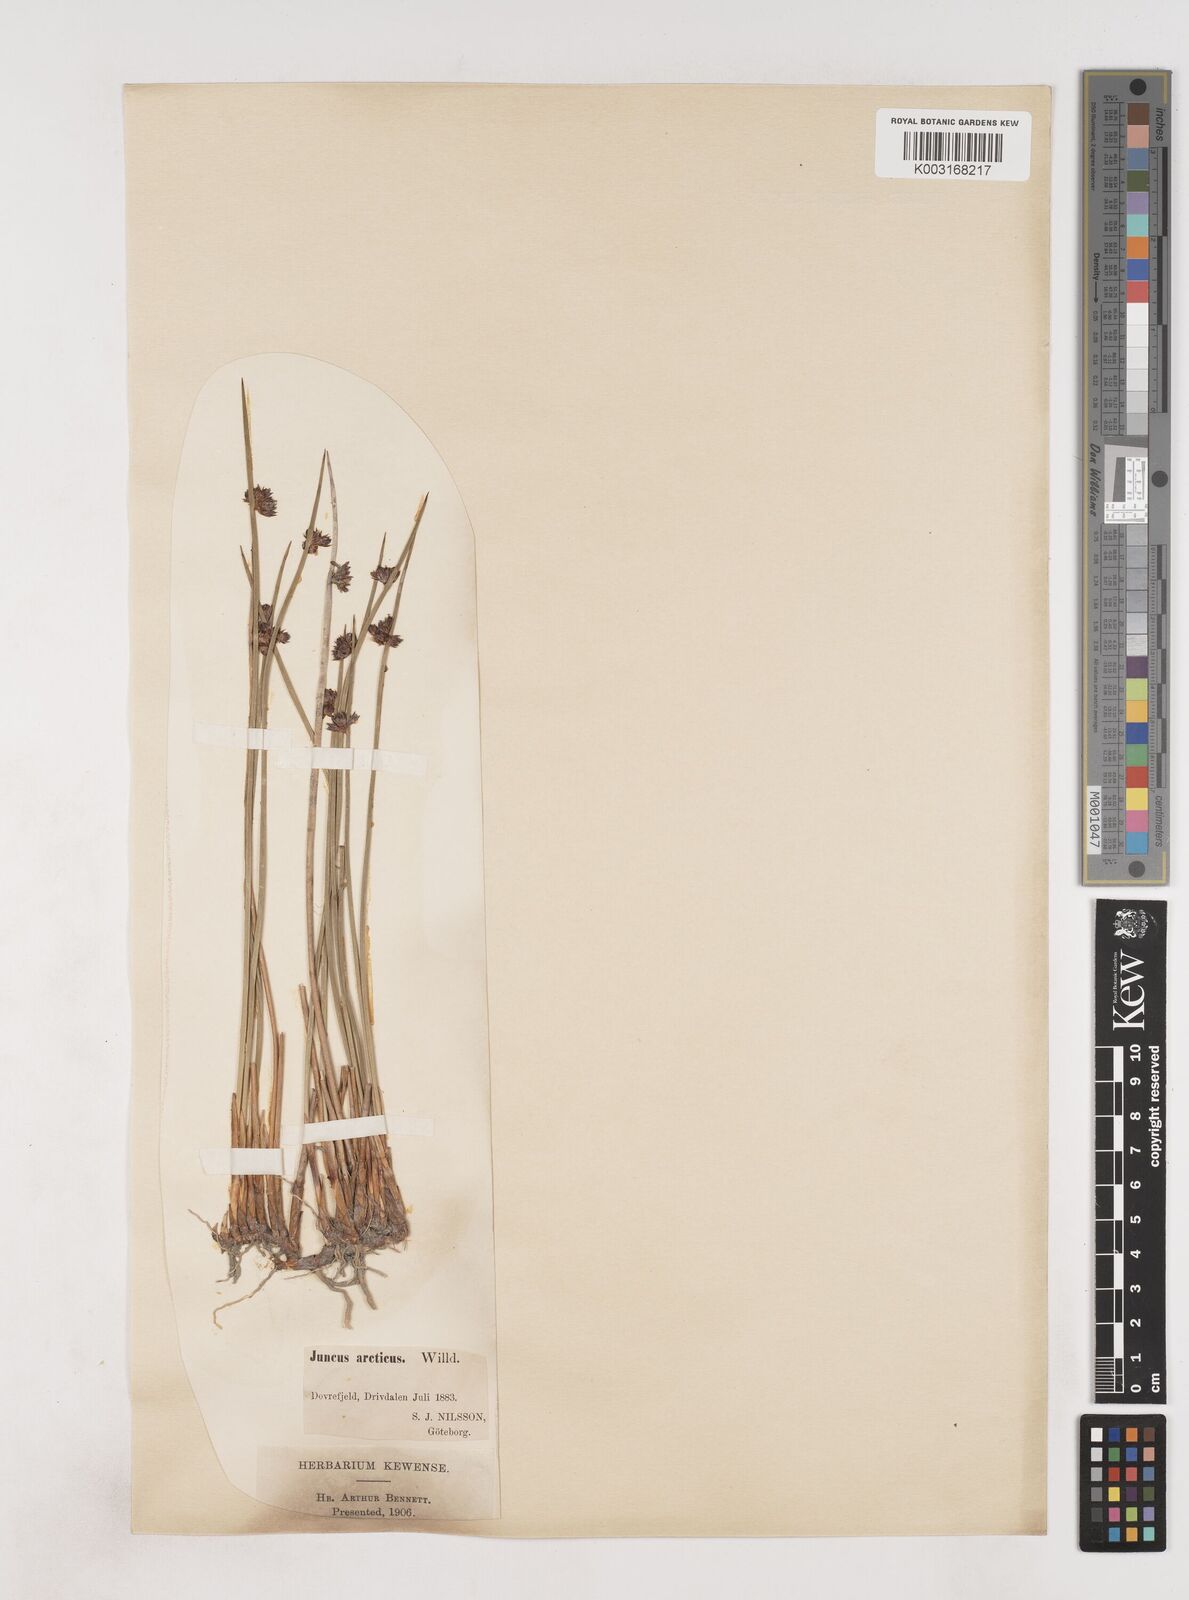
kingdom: Plantae
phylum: Tracheophyta
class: Liliopsida
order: Poales
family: Juncaceae
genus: Juncus
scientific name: Juncus arcticus
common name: Arctic rush
